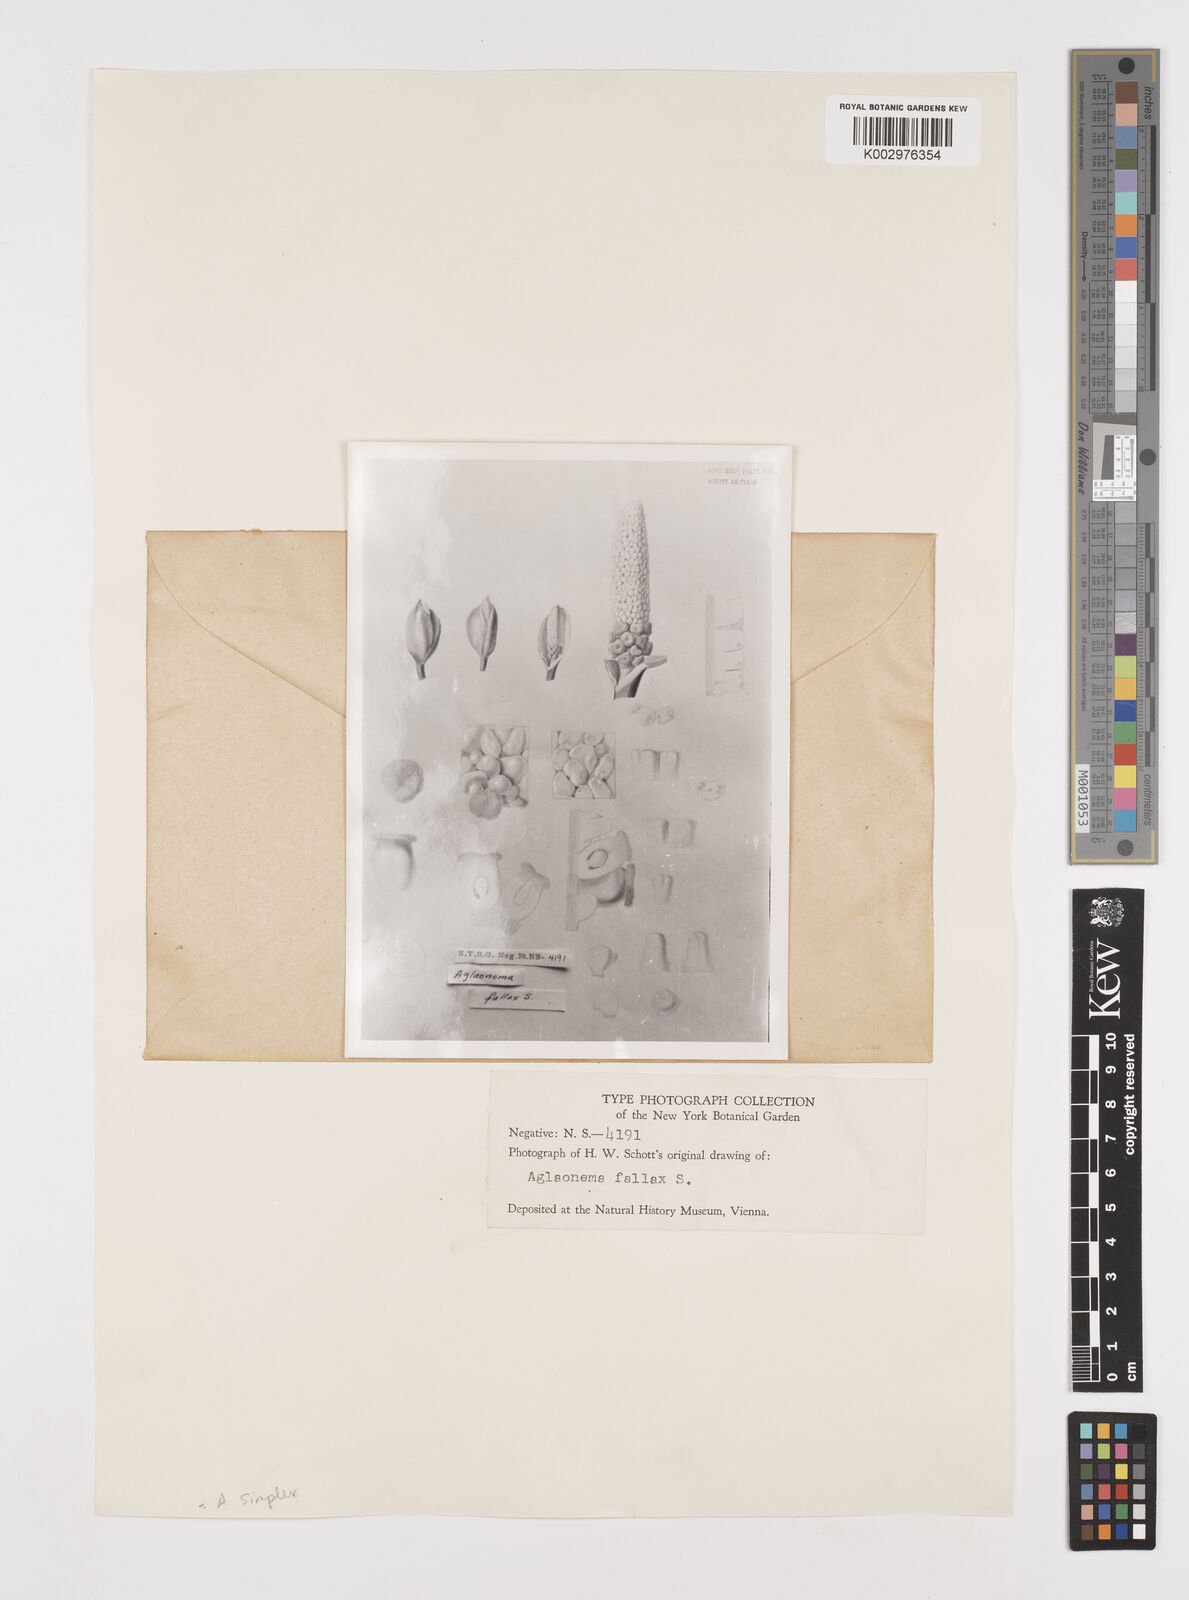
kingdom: Plantae
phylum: Tracheophyta
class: Liliopsida
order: Alismatales
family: Araceae
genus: Aglaonema
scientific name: Aglaonema simplex
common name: Malayan-sword
